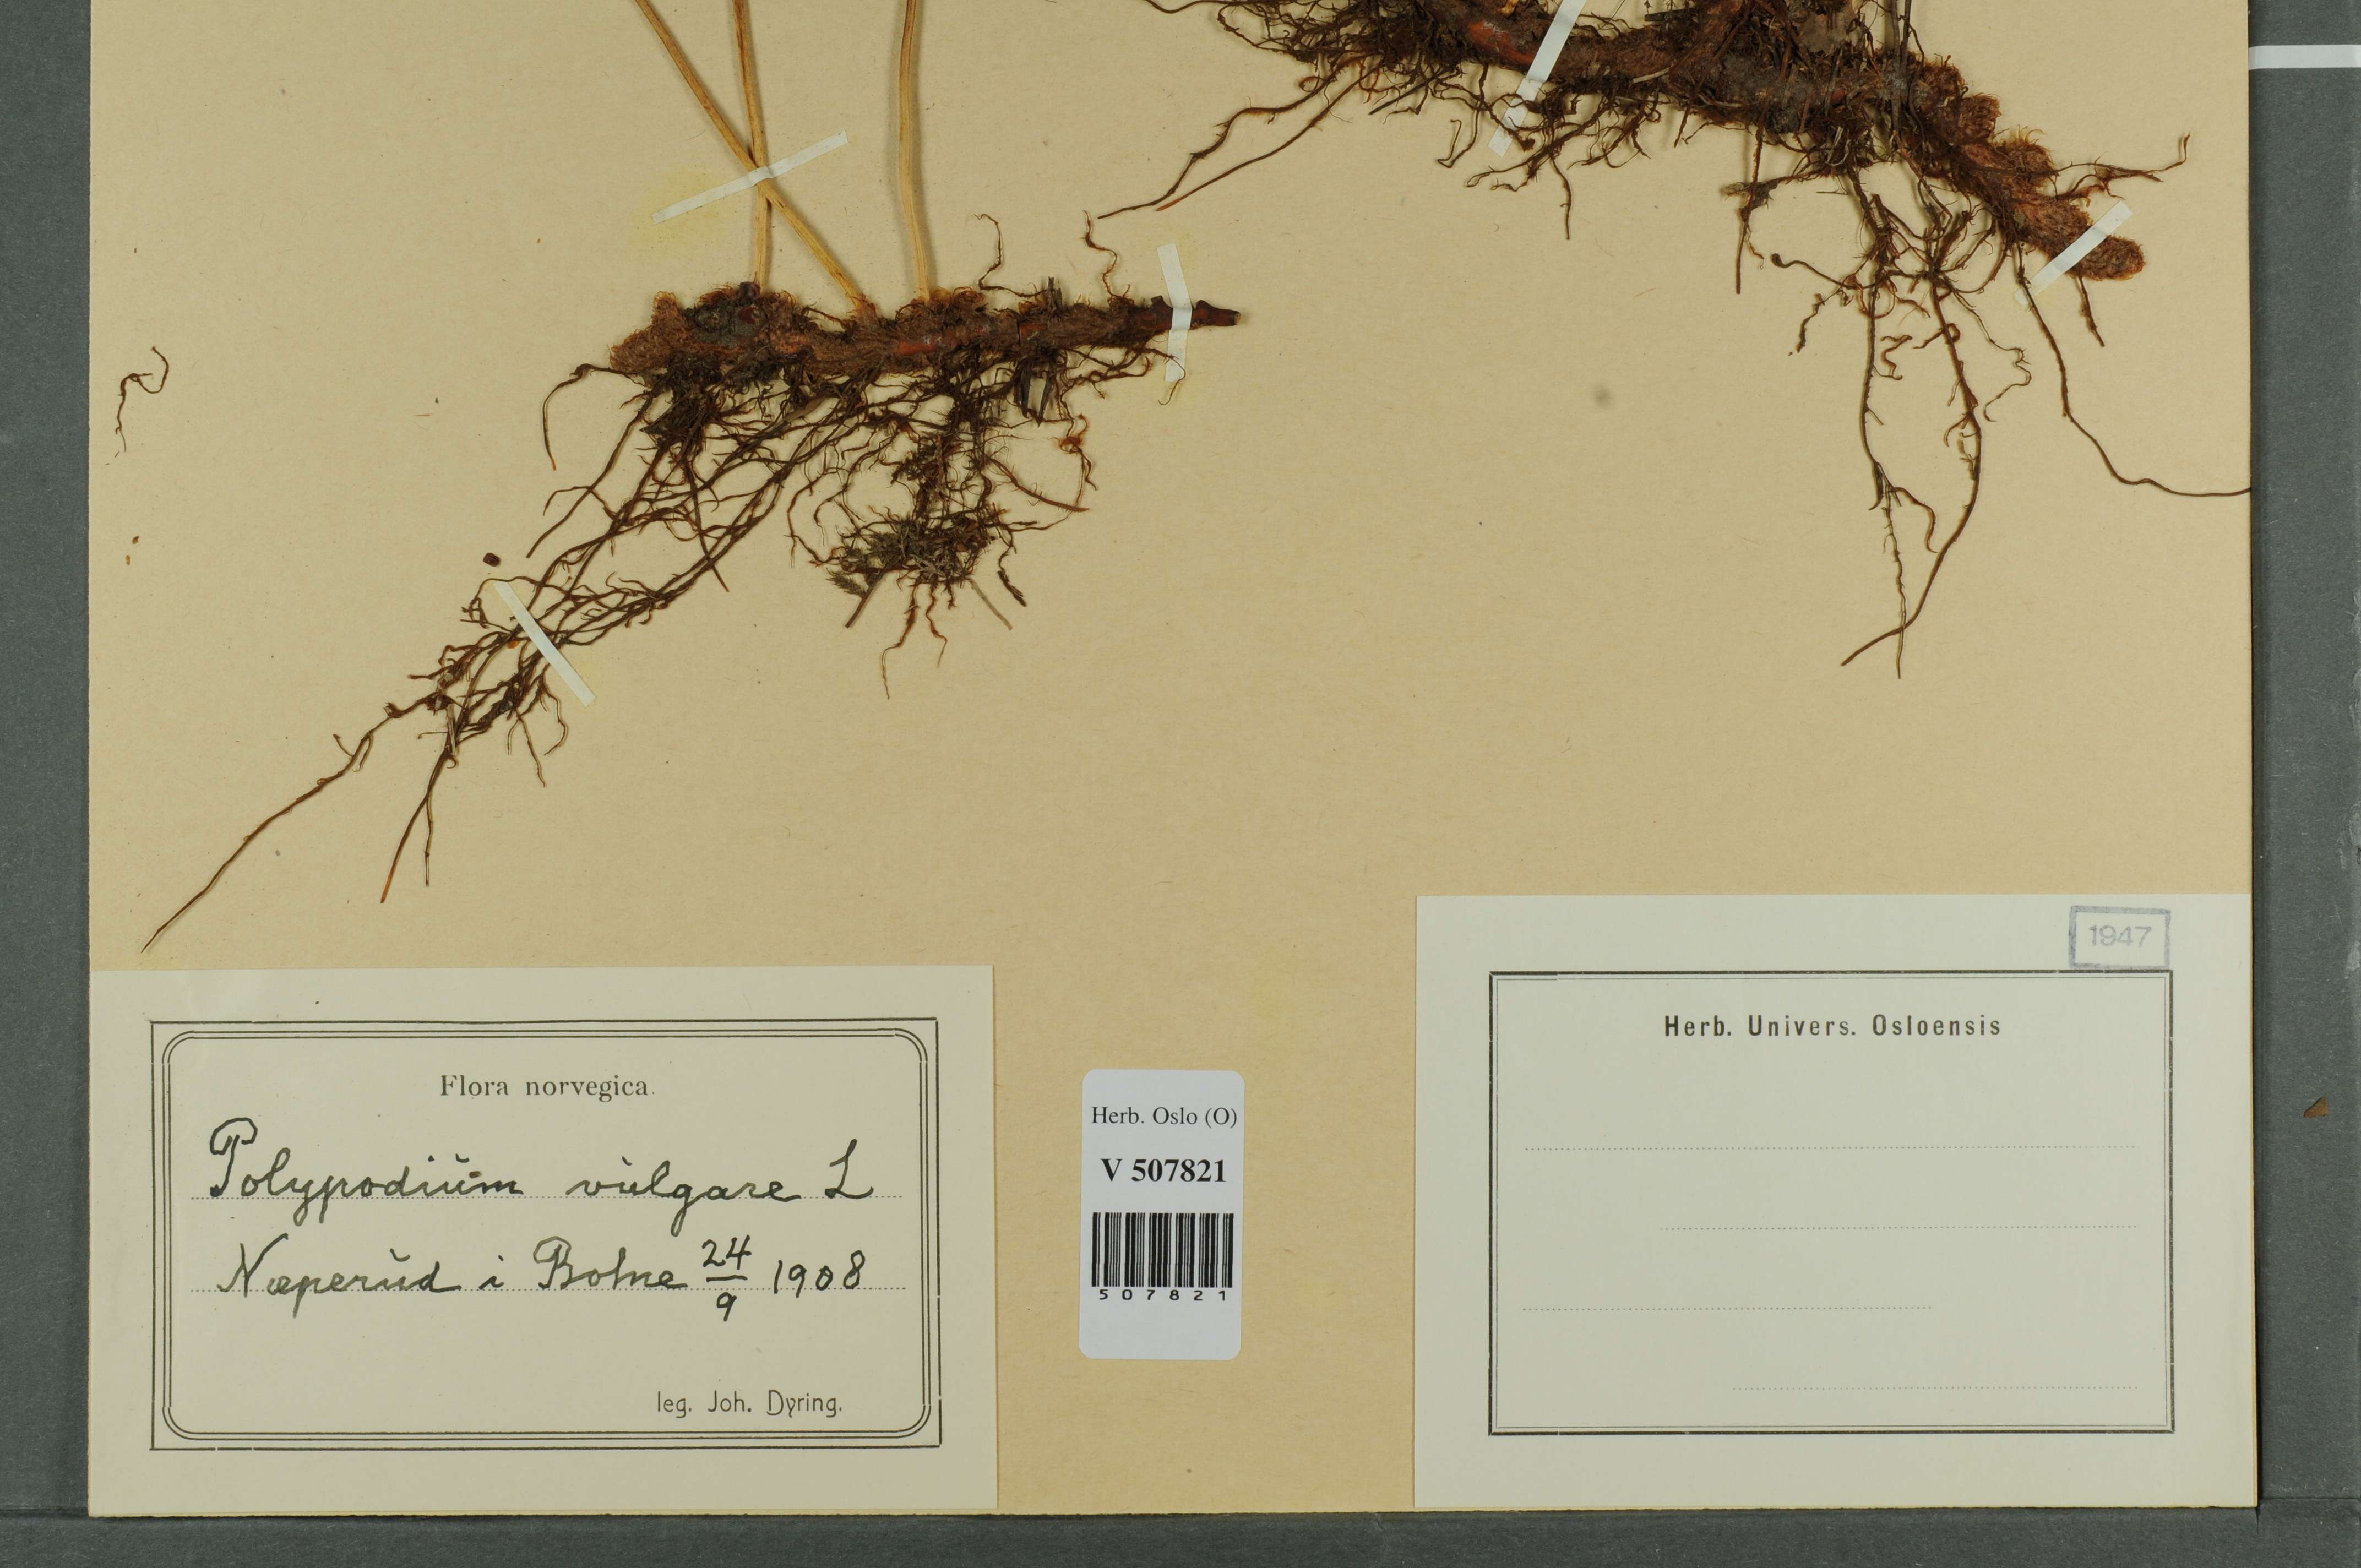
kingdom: Plantae
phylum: Tracheophyta
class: Polypodiopsida
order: Polypodiales
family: Polypodiaceae
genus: Polypodium
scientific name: Polypodium vulgare
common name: Common polypody
